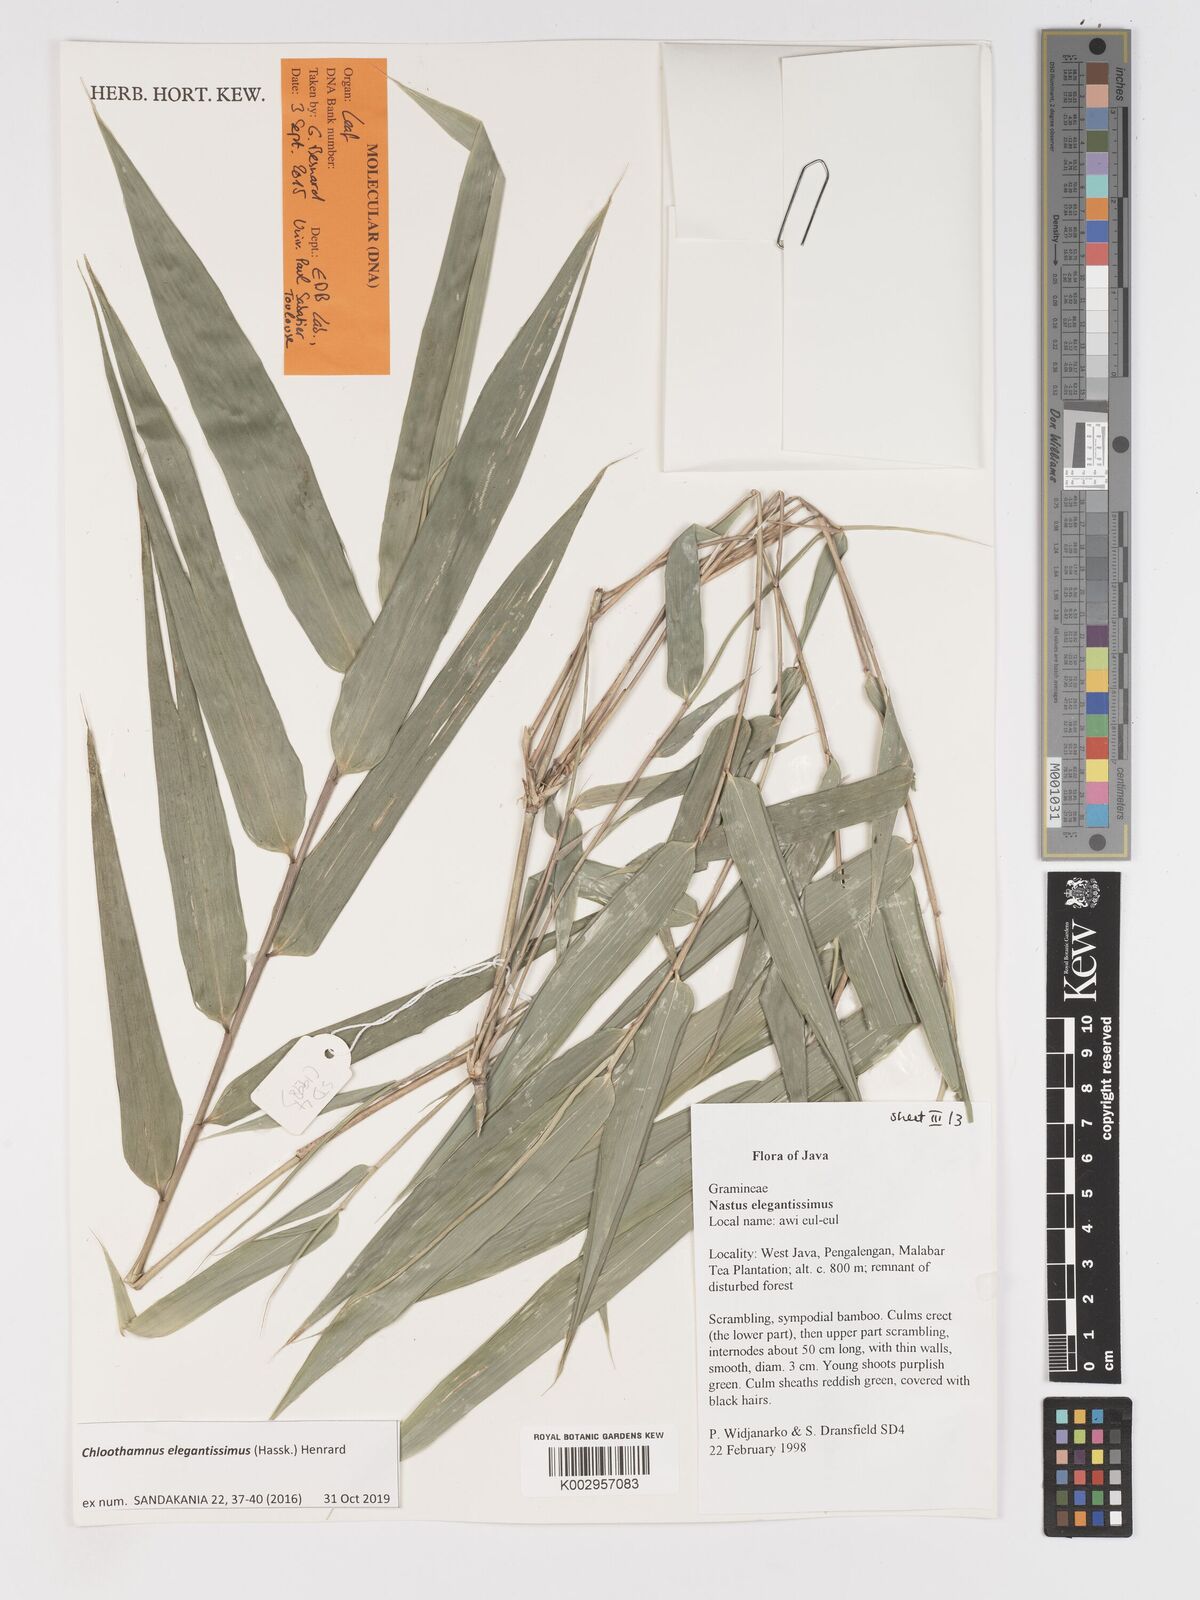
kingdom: Plantae
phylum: Tracheophyta
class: Liliopsida
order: Poales
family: Poaceae
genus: Chloothamnus
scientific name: Chloothamnus elegantissimus
